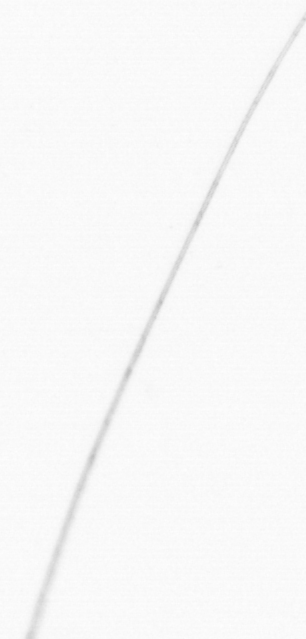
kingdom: Chromista
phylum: Ochrophyta
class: Bacillariophyceae
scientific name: Bacillariophyceae
